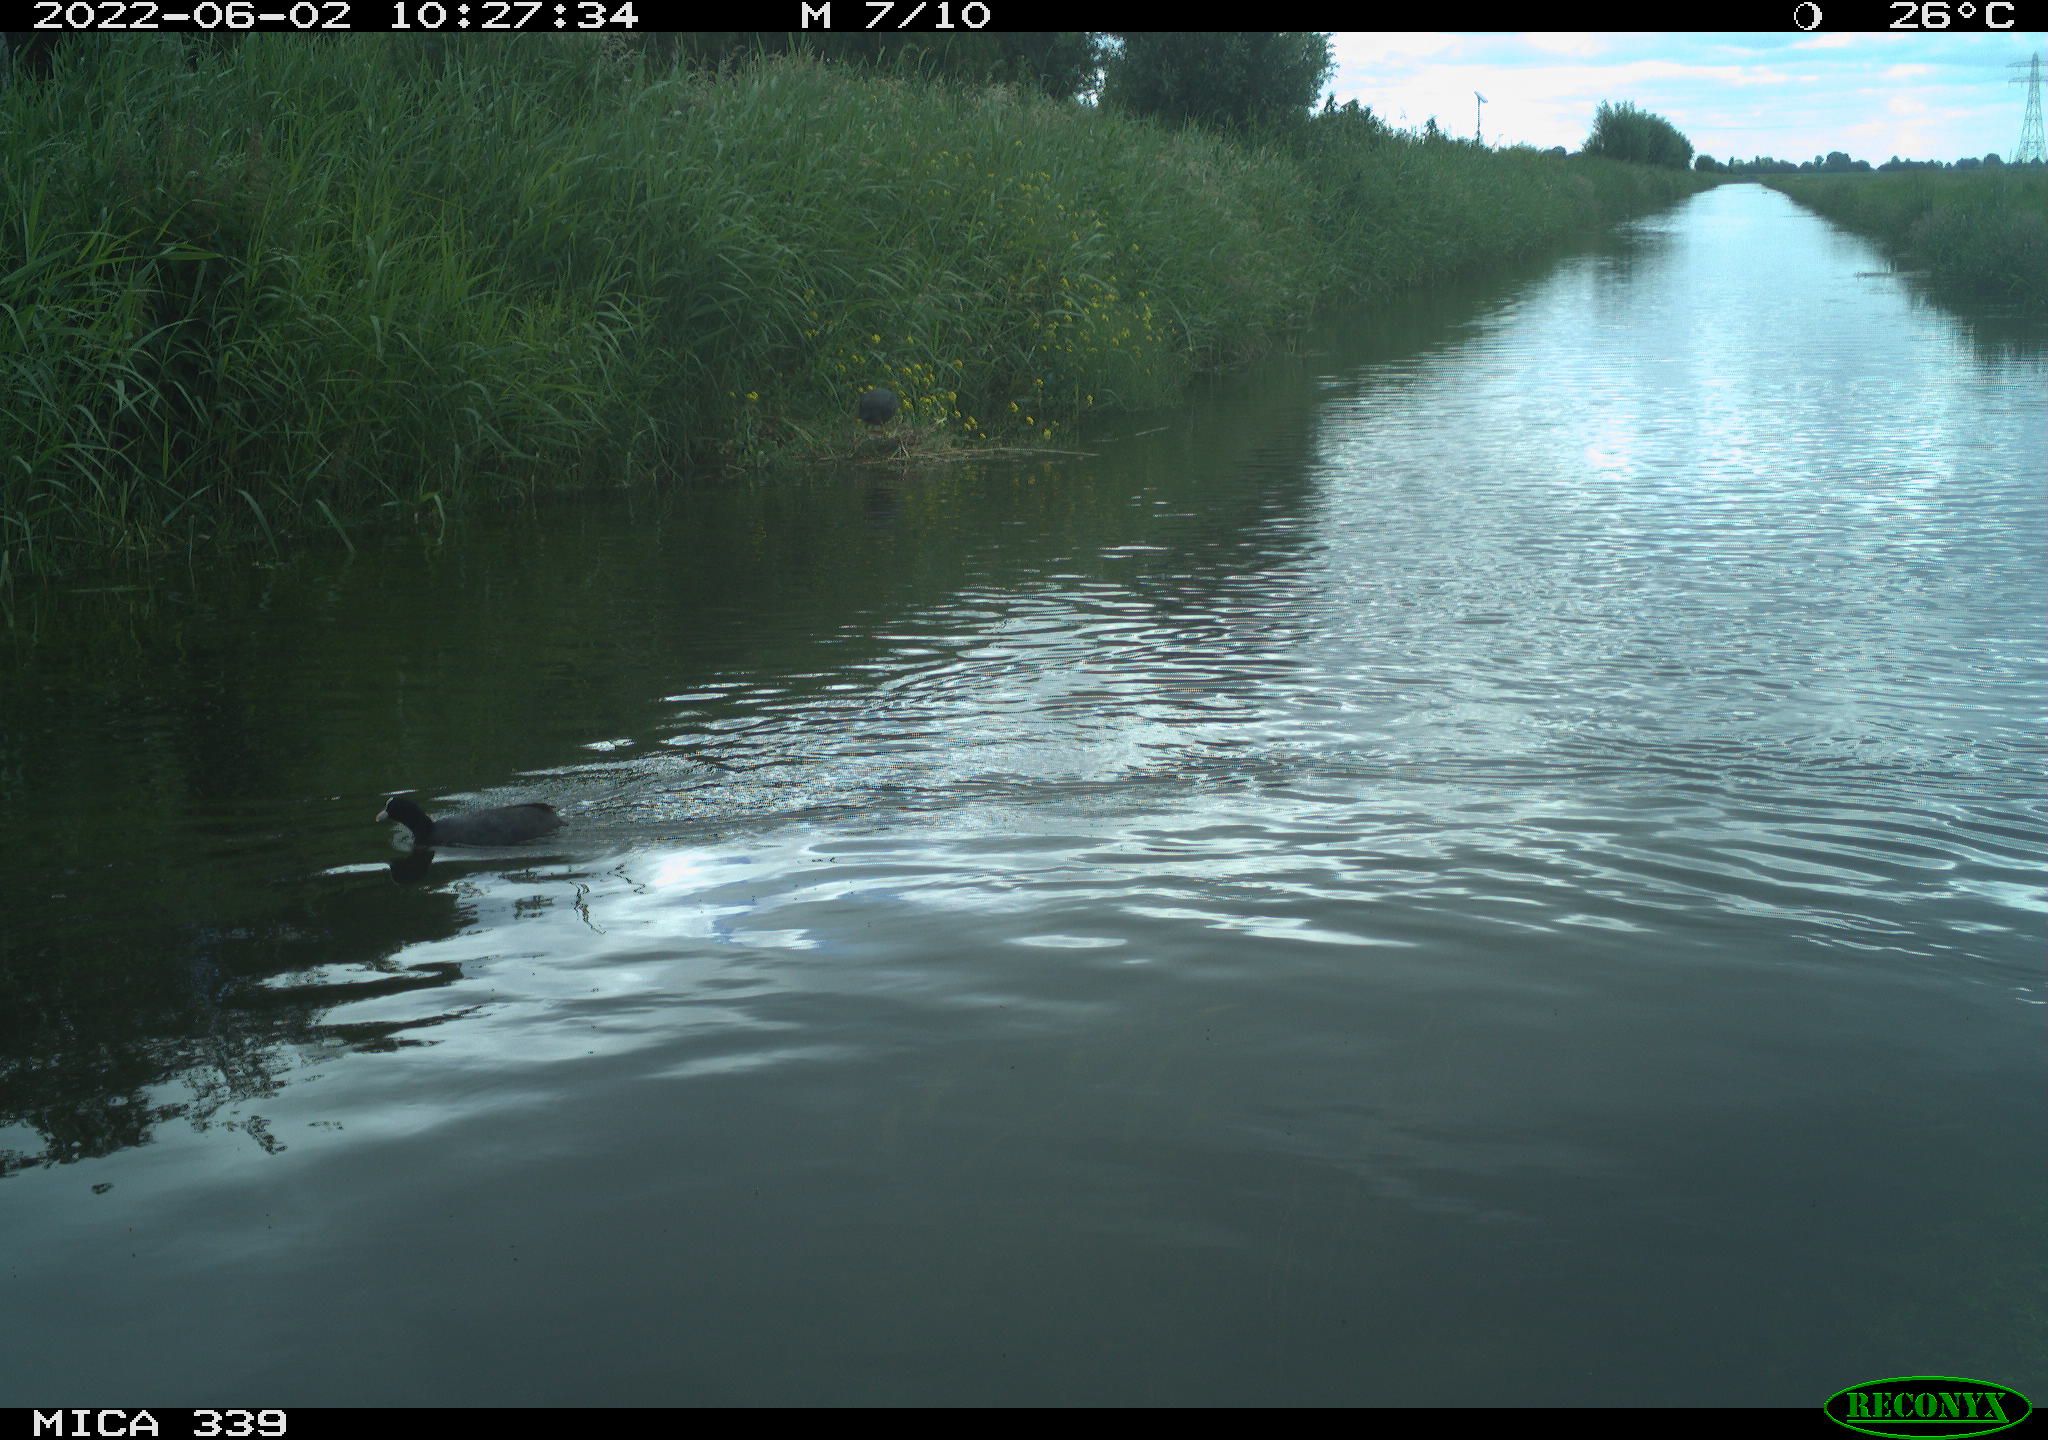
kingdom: Animalia
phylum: Chordata
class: Aves
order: Gruiformes
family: Rallidae
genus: Fulica
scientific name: Fulica atra
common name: Eurasian coot
